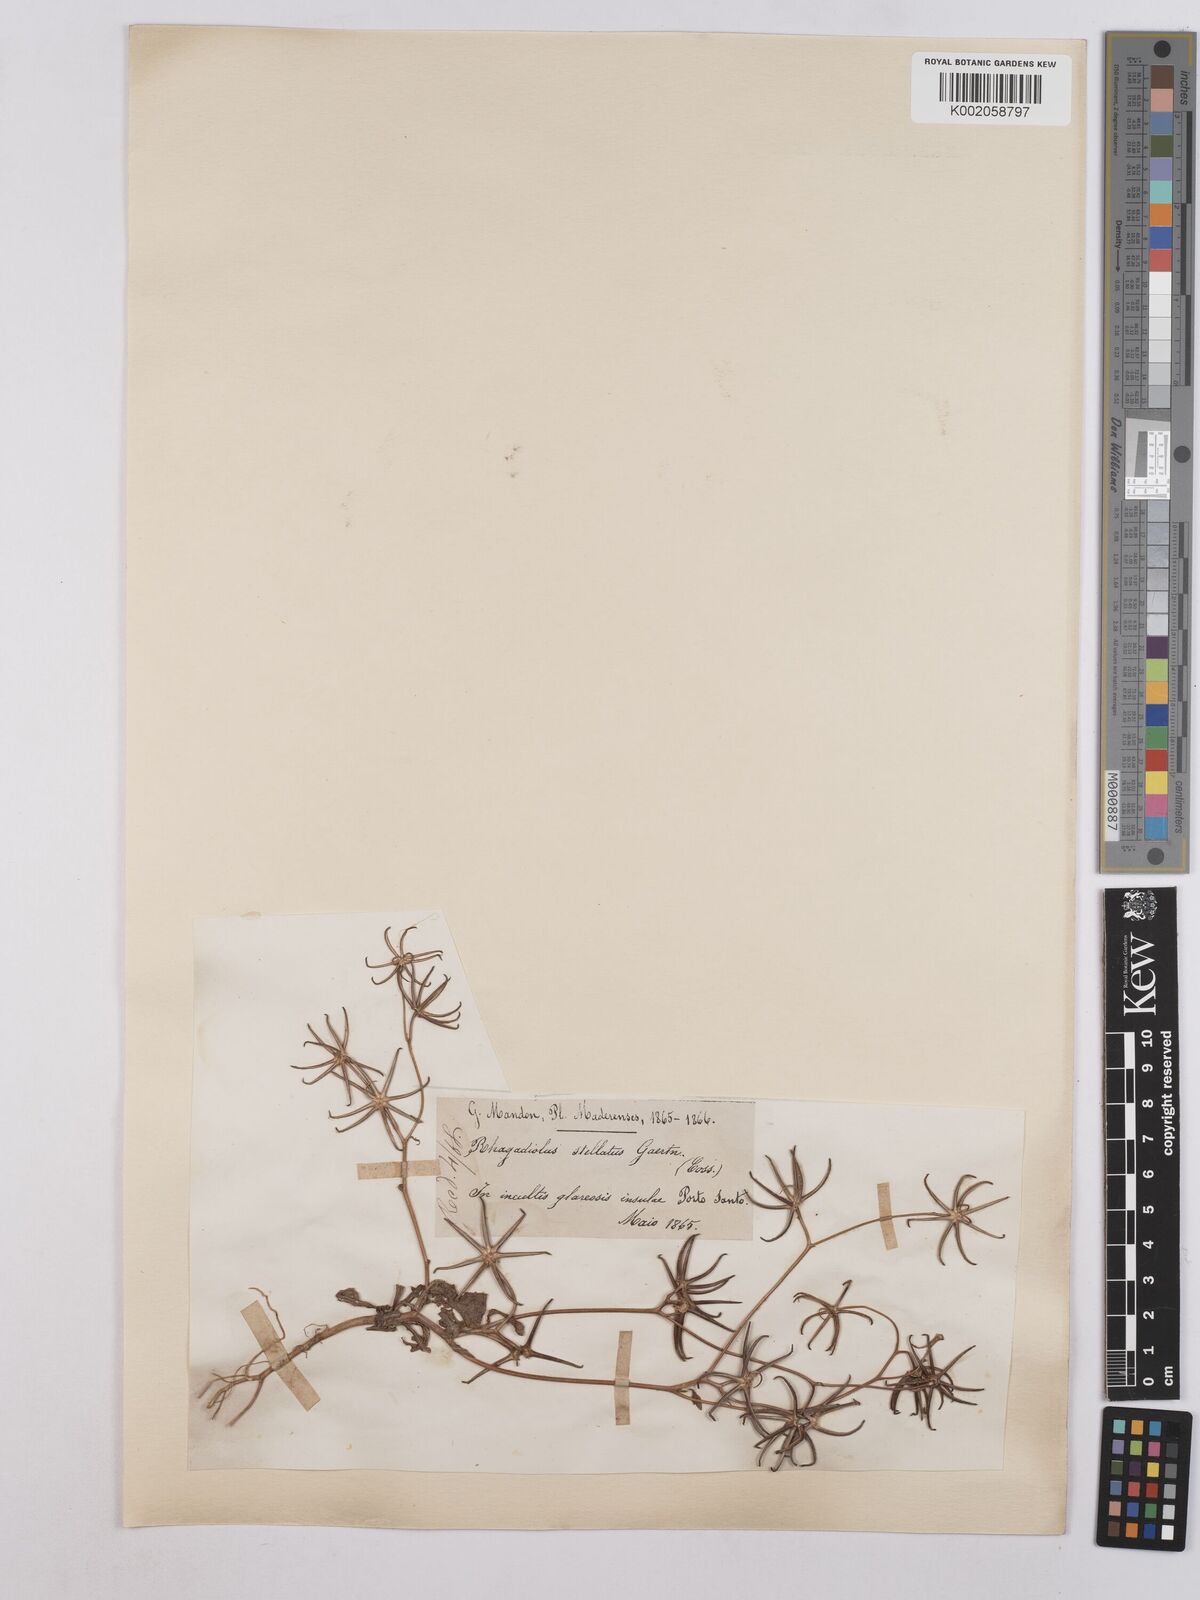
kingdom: Plantae
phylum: Tracheophyta
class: Magnoliopsida
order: Asterales
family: Asteraceae
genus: Rhagadiolus
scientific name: Rhagadiolus stellatus
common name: Star hawkbit
